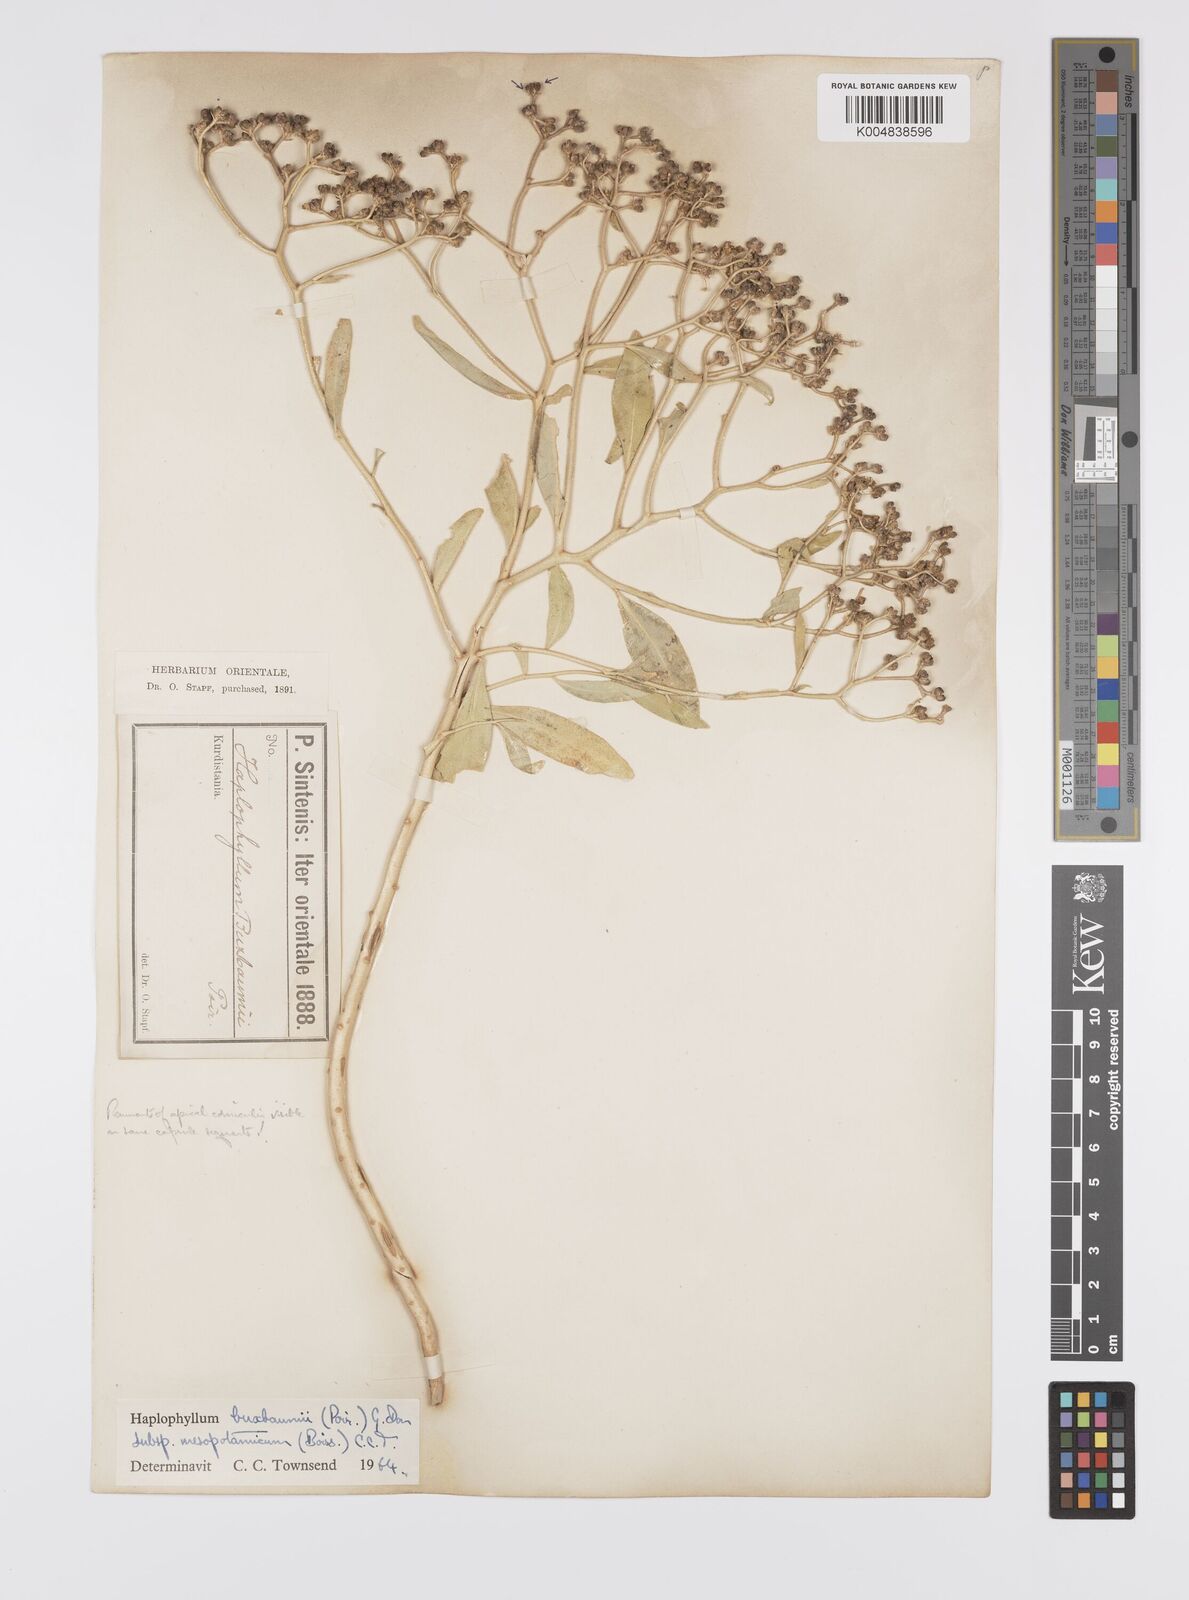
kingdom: Plantae
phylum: Tracheophyta
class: Magnoliopsida
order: Sapindales
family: Rutaceae
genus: Haplophyllum
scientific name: Haplophyllum buxbaumii
